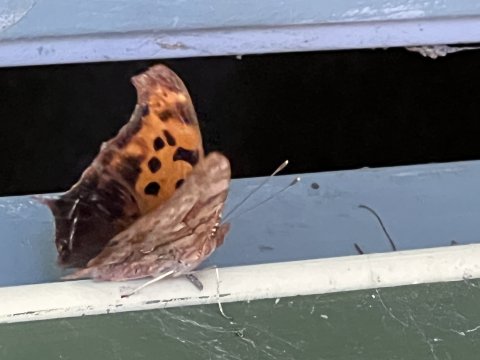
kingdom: Animalia
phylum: Arthropoda
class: Insecta
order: Lepidoptera
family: Nymphalidae
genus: Polygonia
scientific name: Polygonia interrogationis
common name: Question Mark
